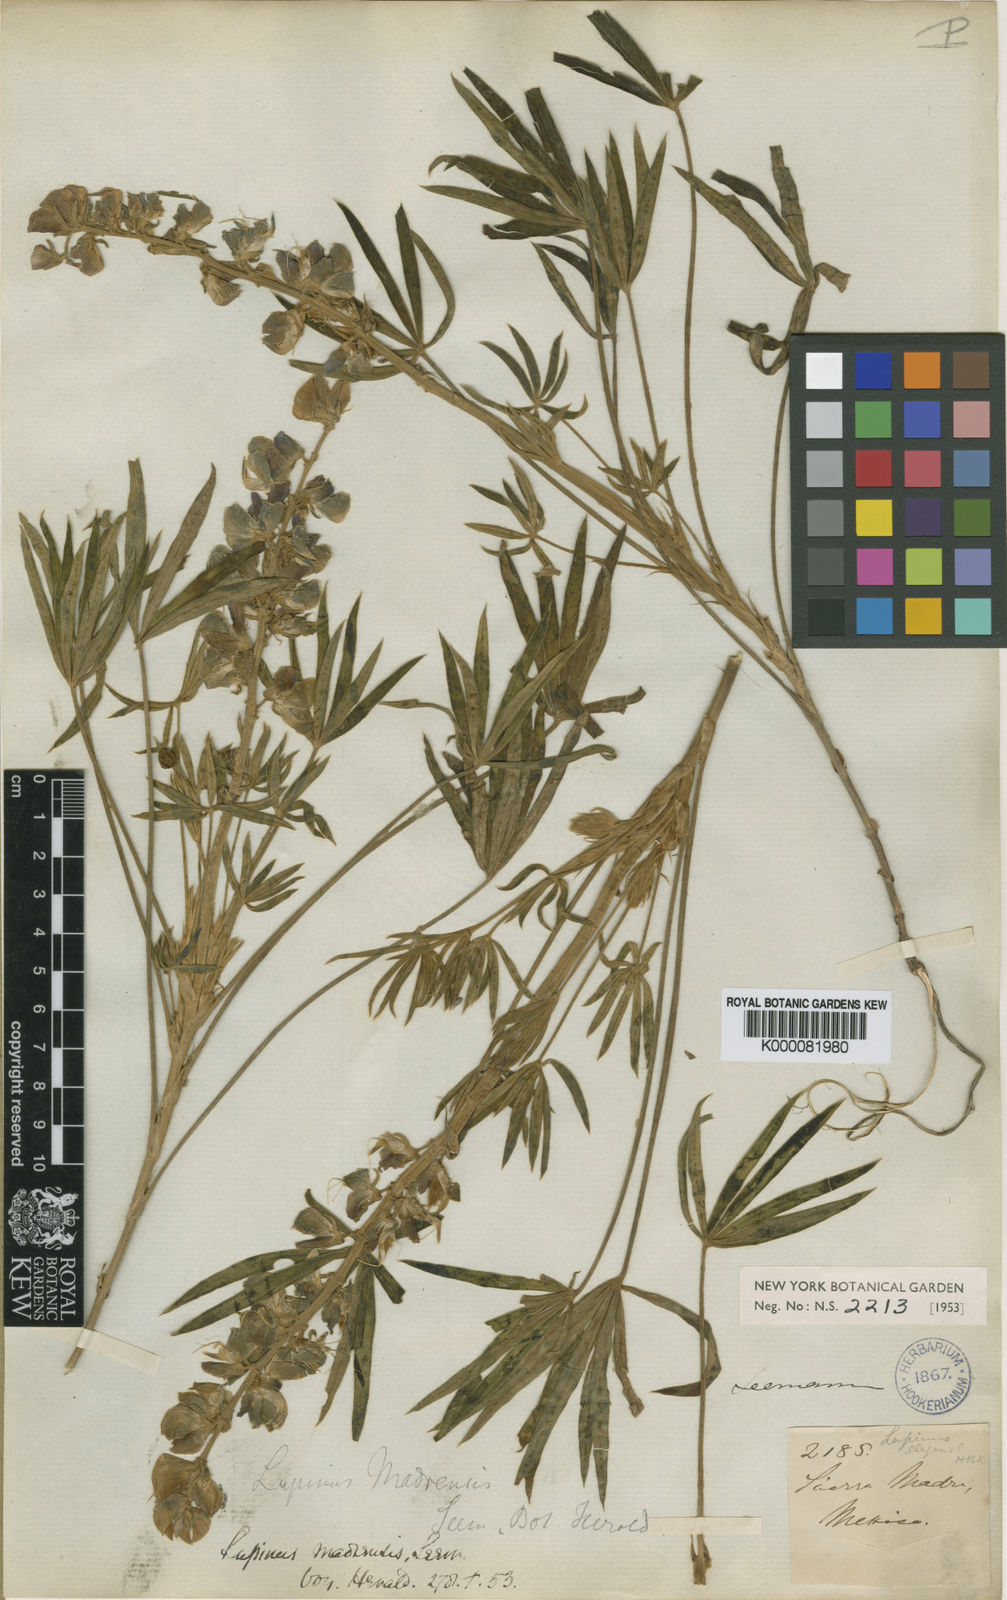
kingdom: Plantae
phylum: Tracheophyta
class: Magnoliopsida
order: Fabales
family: Fabaceae
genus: Lupinus
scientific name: Lupinus
